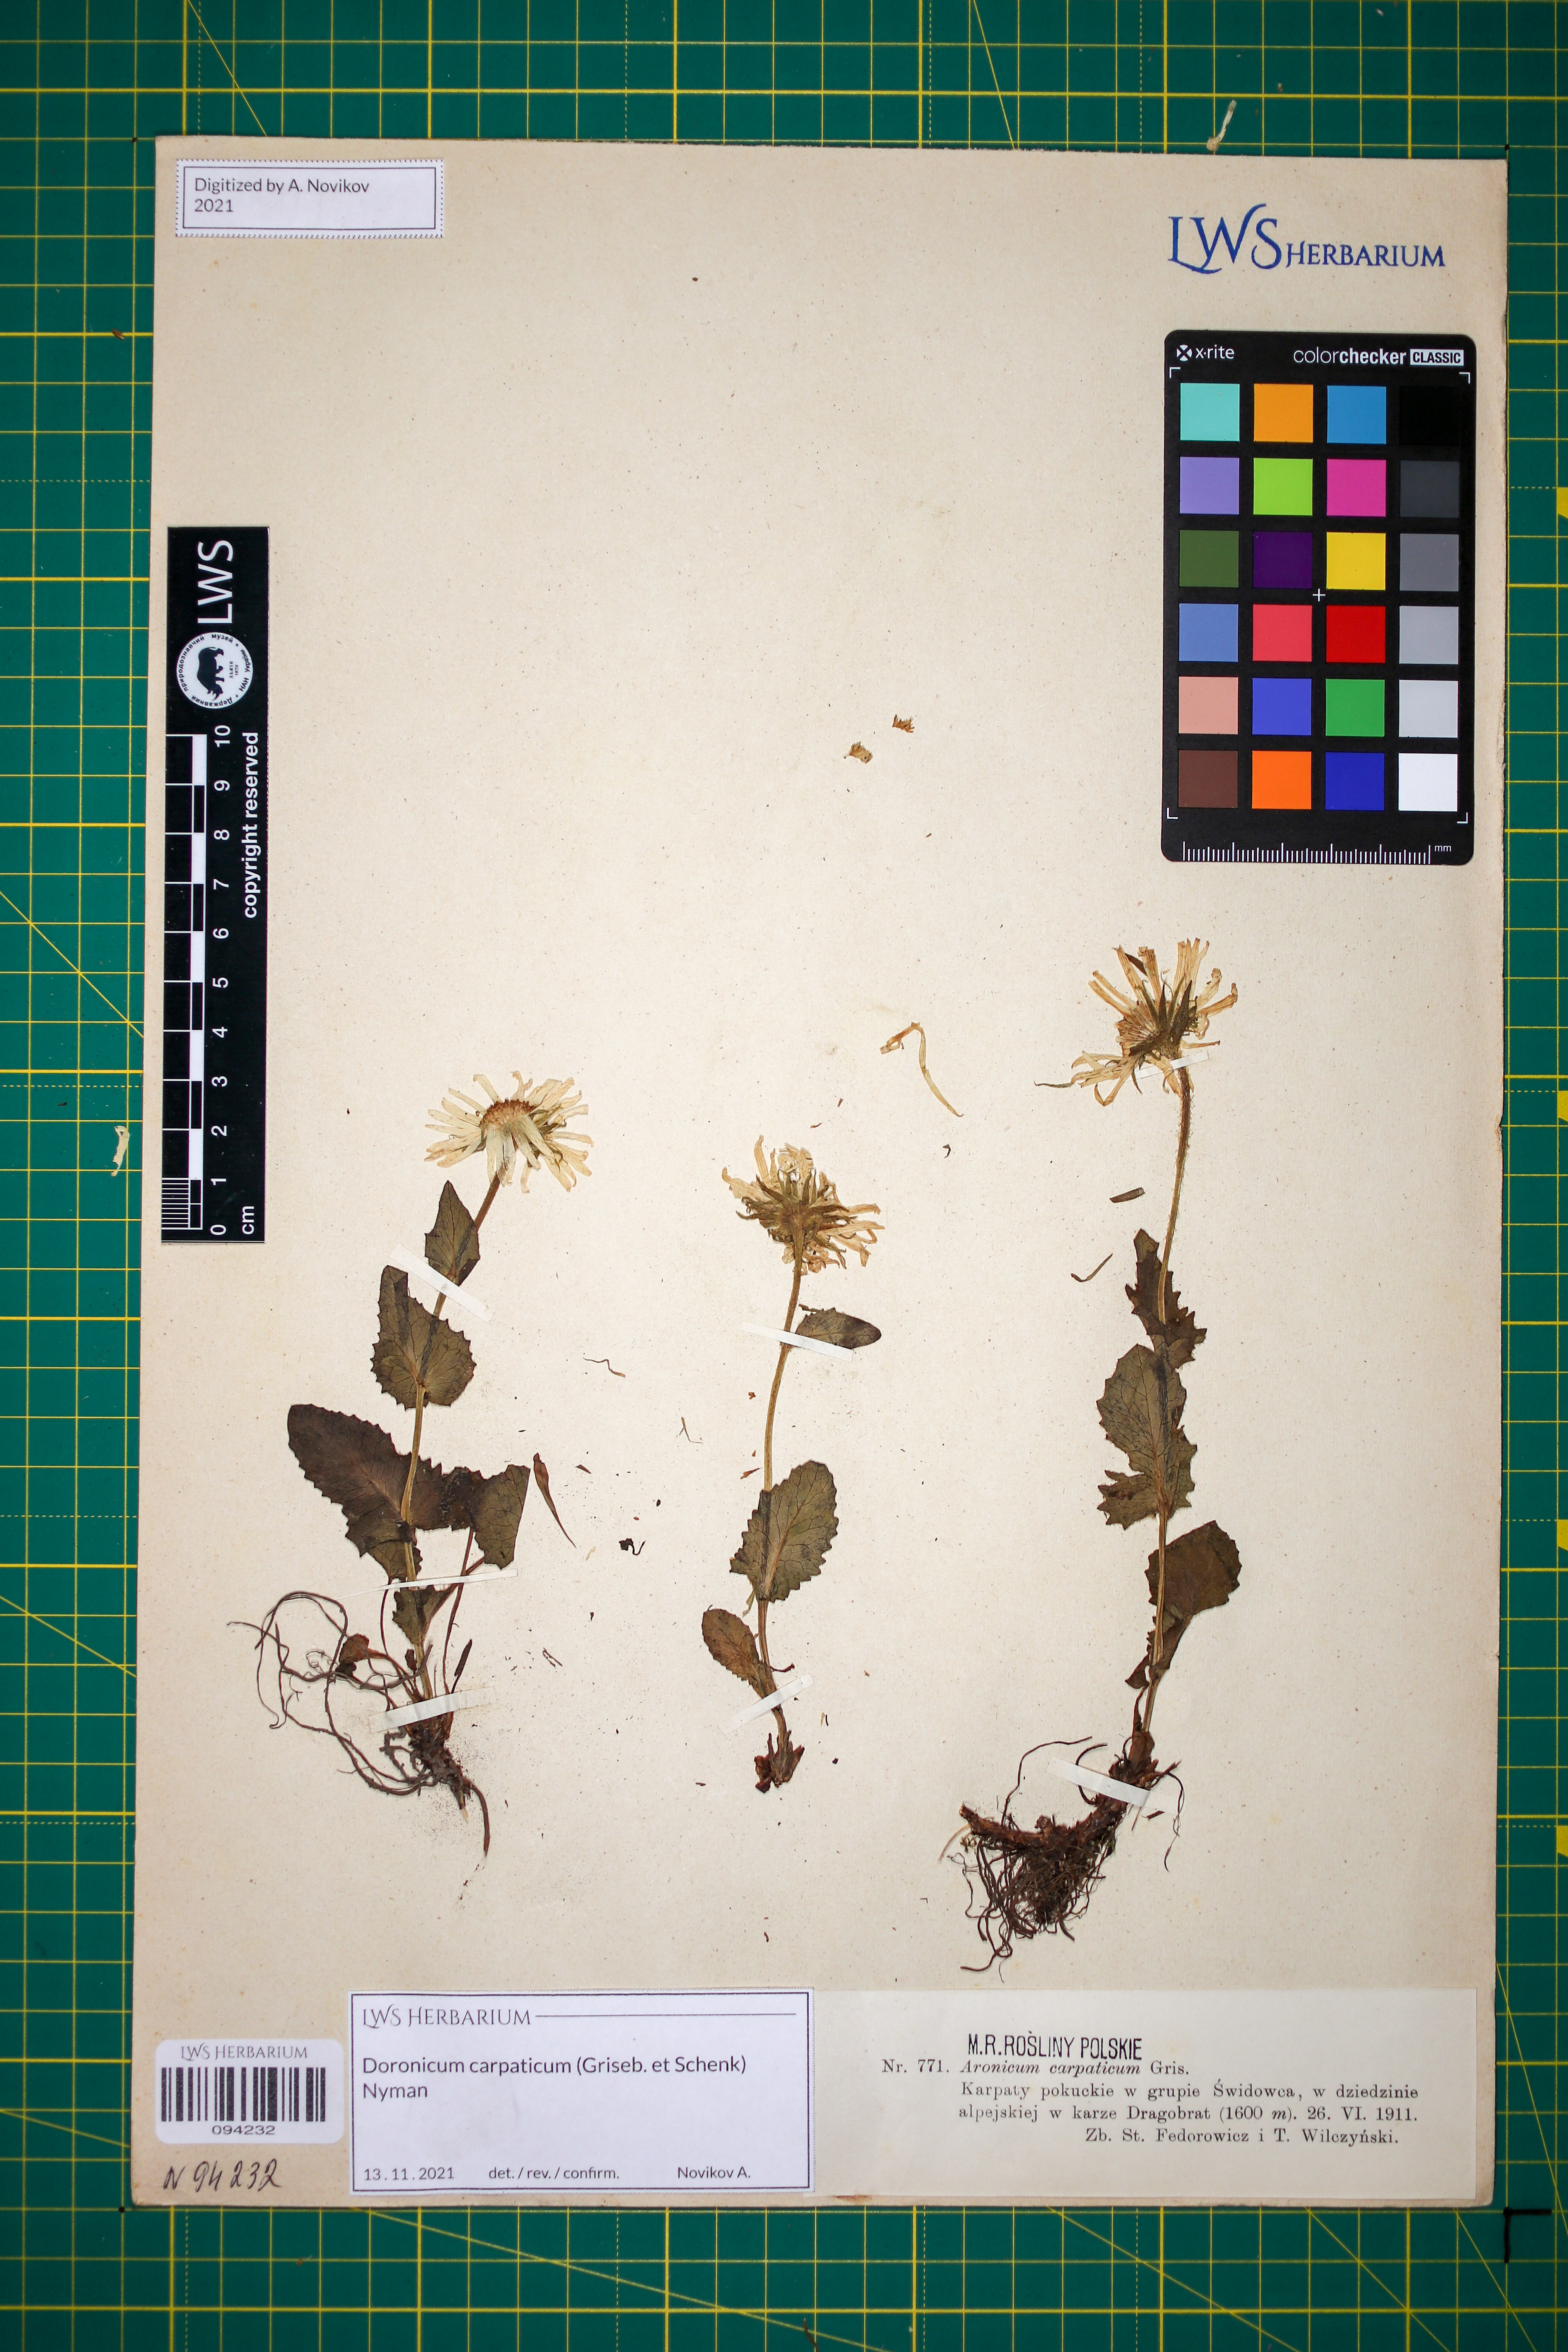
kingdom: Plantae
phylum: Tracheophyta
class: Magnoliopsida
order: Asterales
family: Asteraceae
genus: Doronicum
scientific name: Doronicum carpaticum
